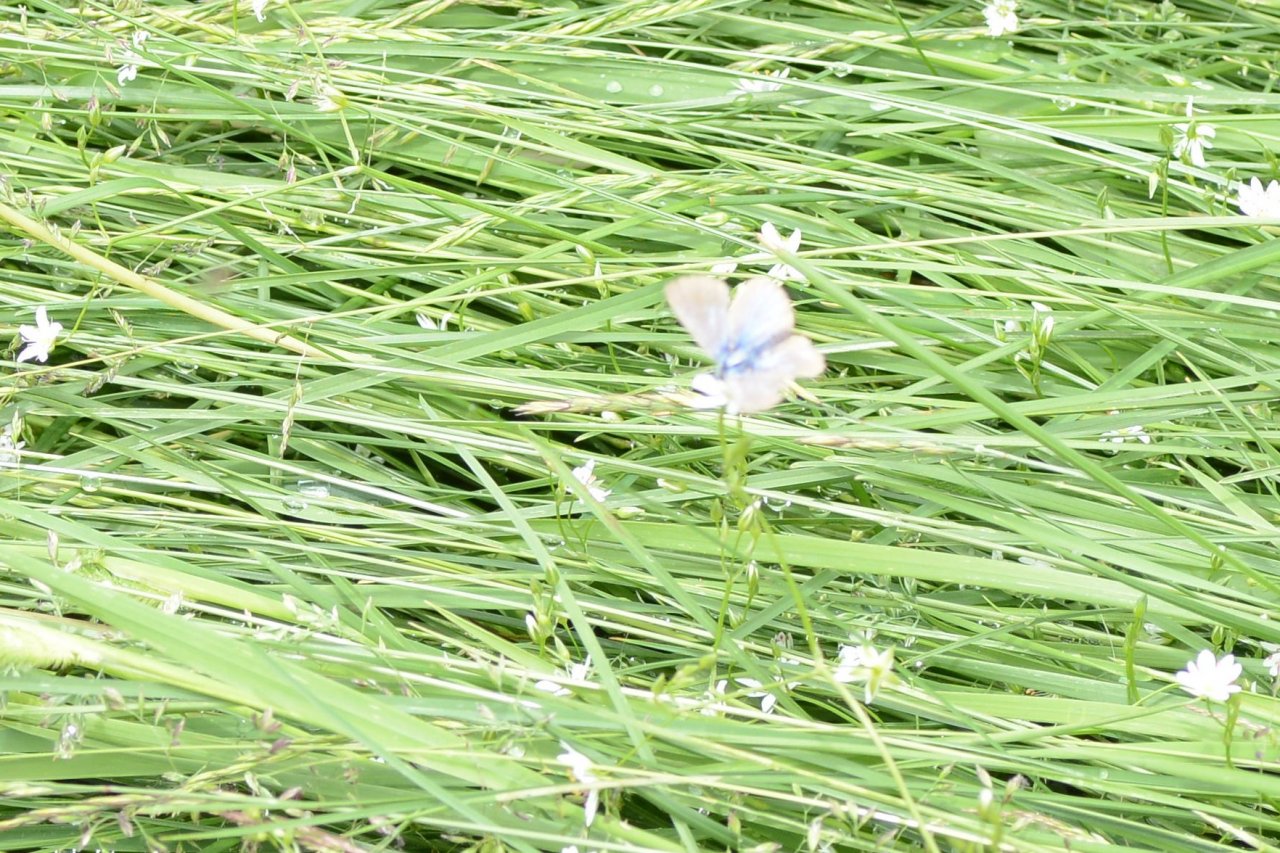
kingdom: Animalia
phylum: Arthropoda
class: Insecta
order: Lepidoptera
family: Lycaenidae
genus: Glaucopsyche
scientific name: Glaucopsyche lygdamus
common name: Silvery Blue
